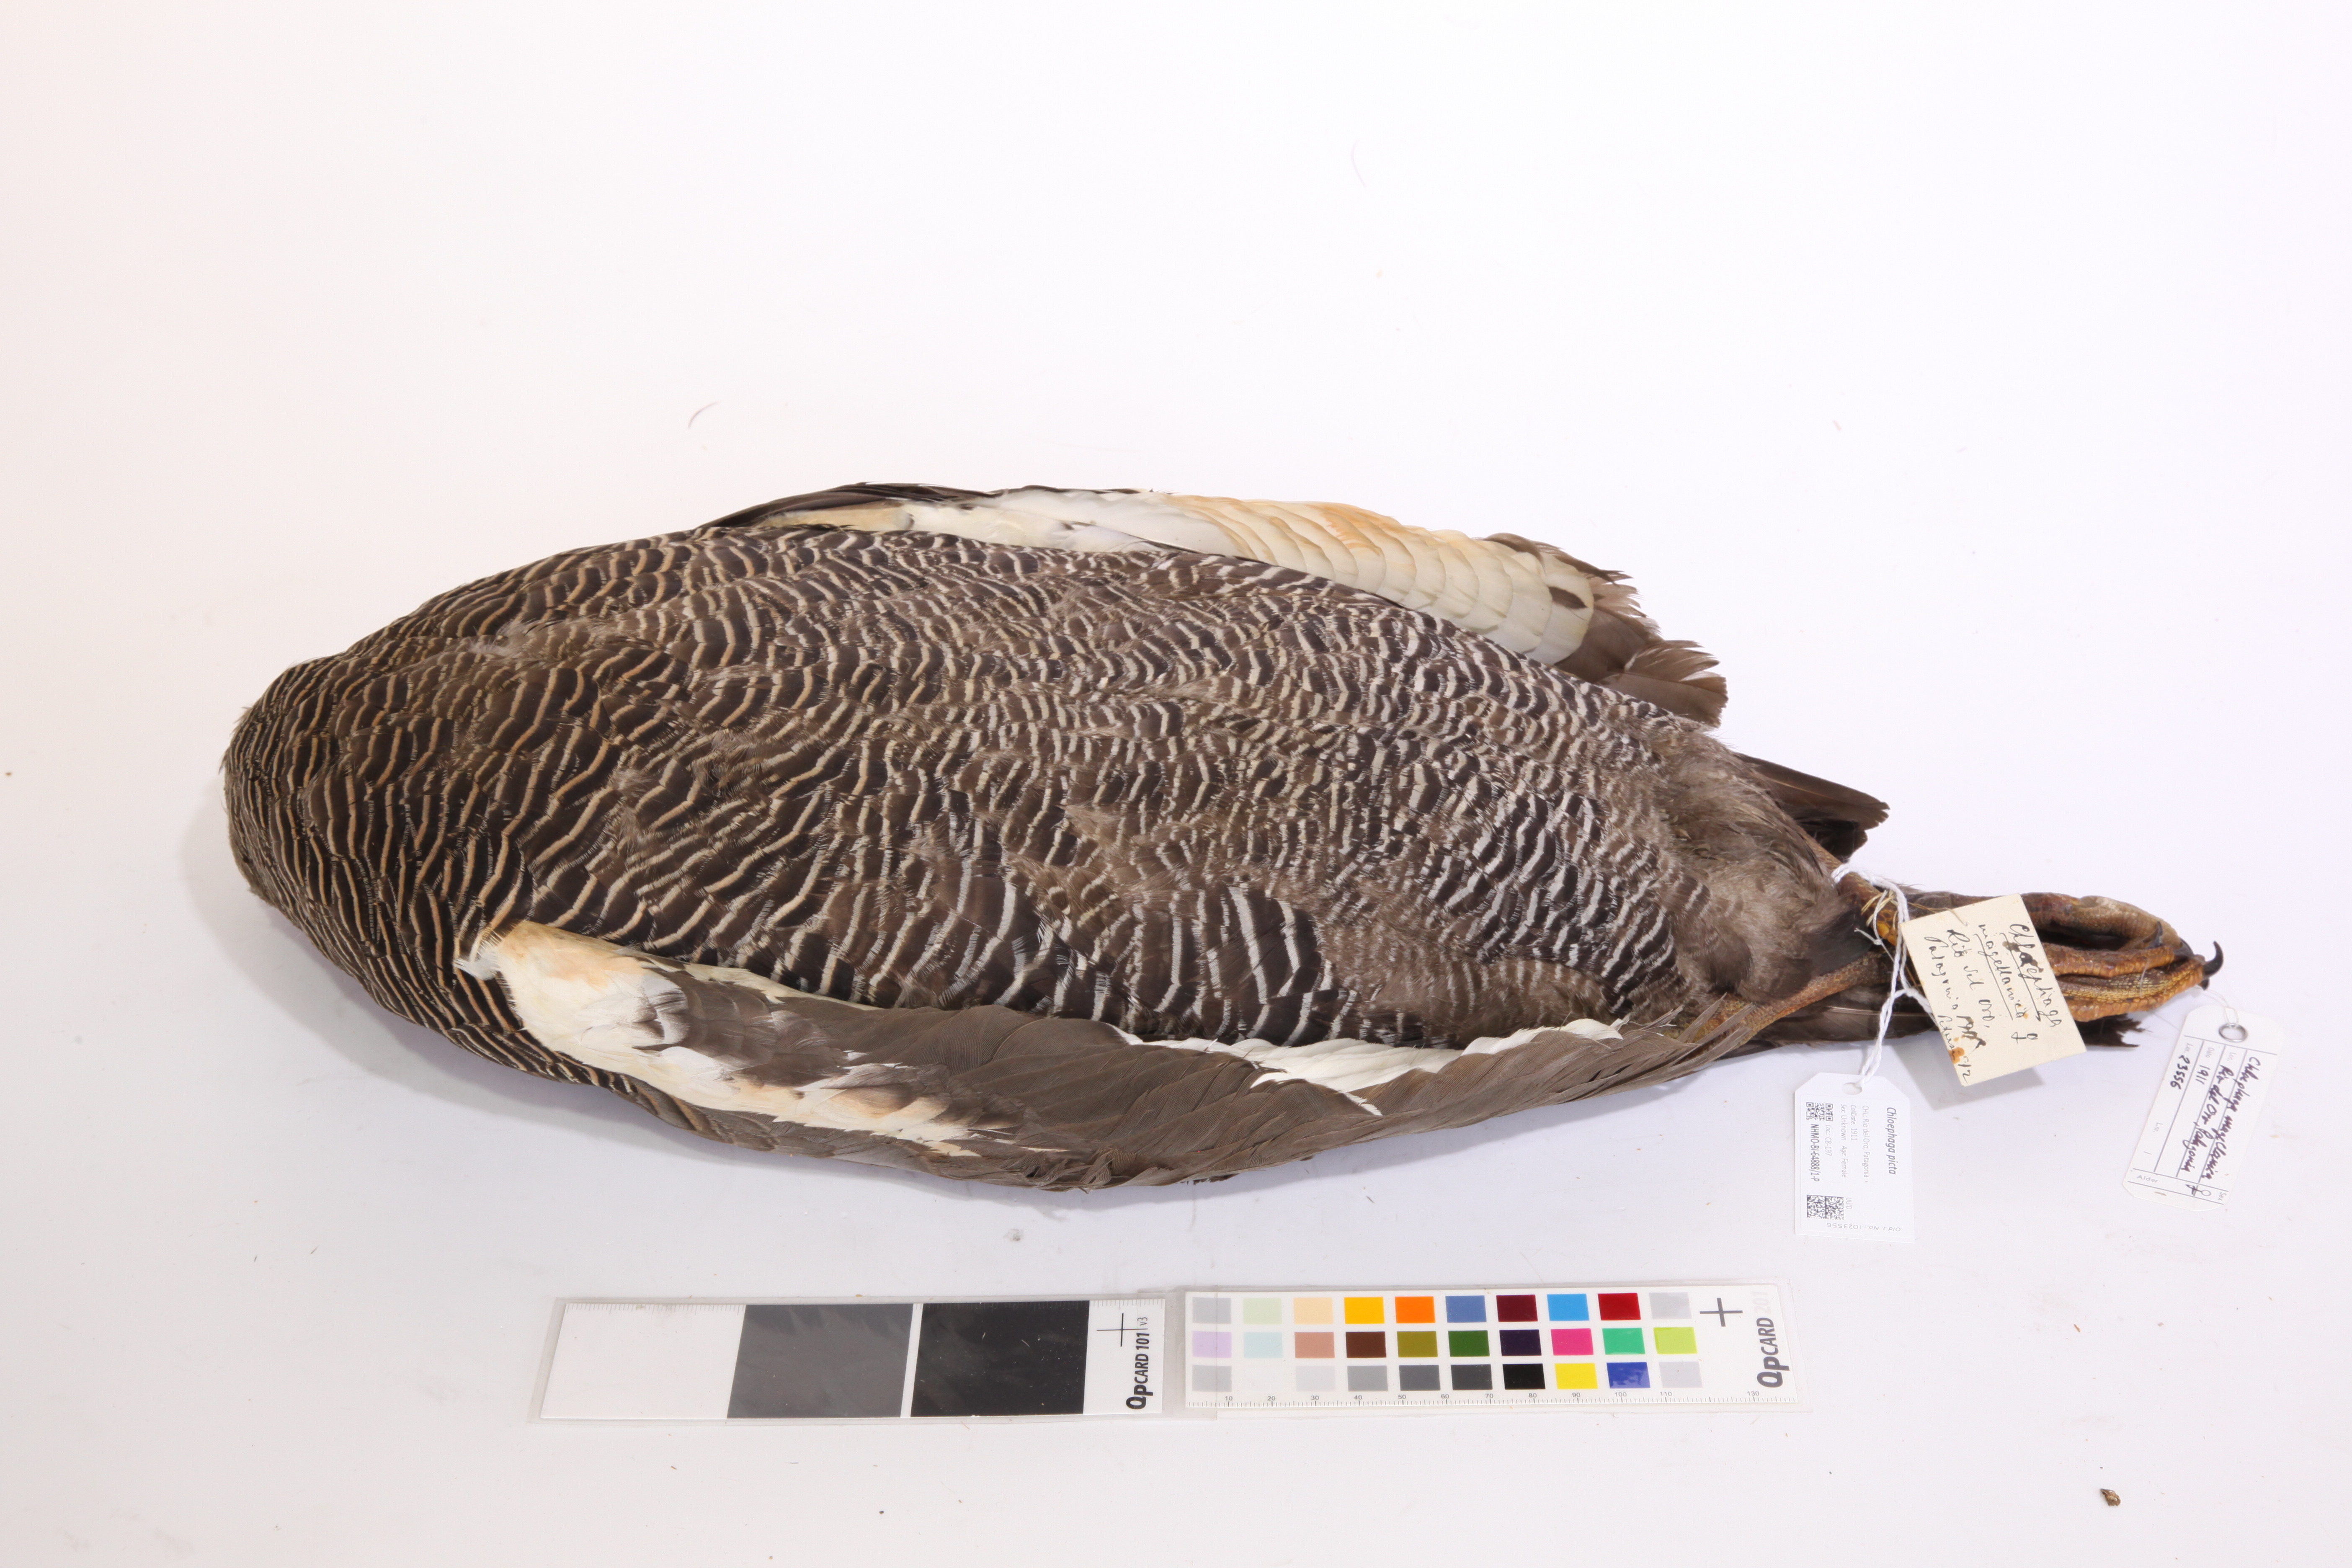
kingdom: Animalia
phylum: Chordata
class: Aves
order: Anseriformes
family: Anatidae
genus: Chloephaga
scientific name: Chloephaga picta
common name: Upland goose
